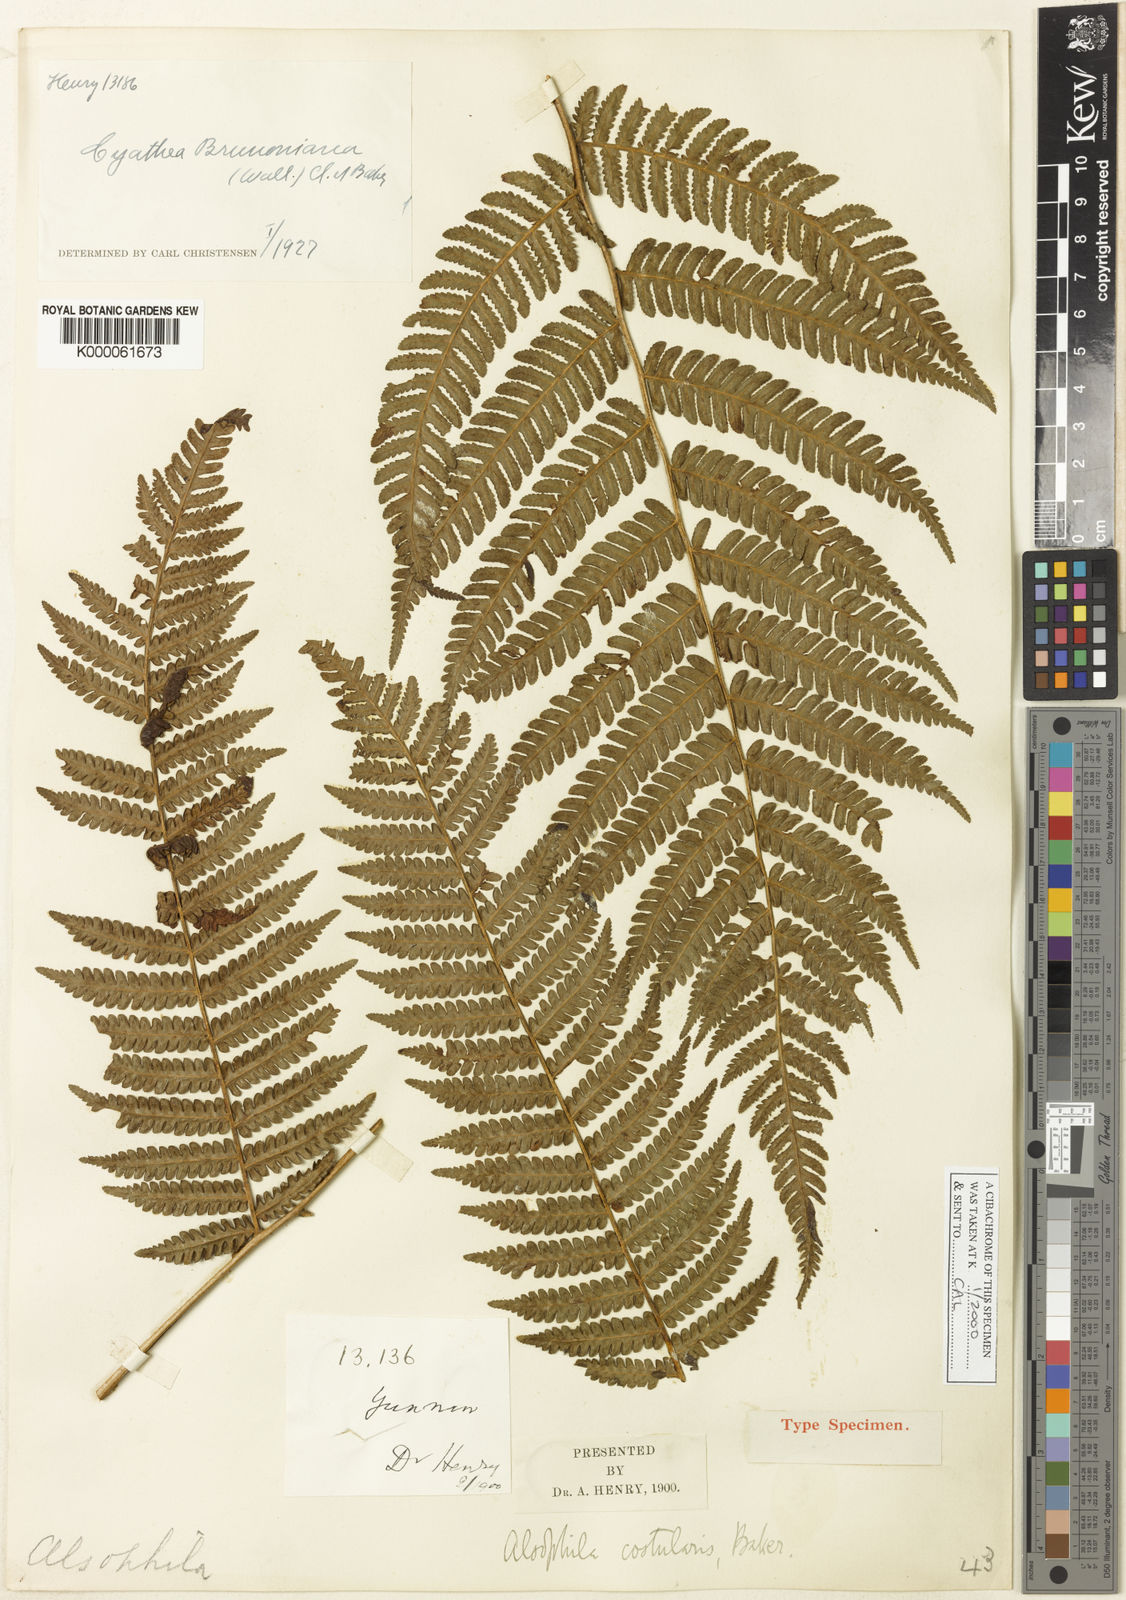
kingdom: Plantae
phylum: Tracheophyta
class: Polypodiopsida
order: Cyatheales
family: Cyatheaceae
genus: Sphaeropteris
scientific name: Sphaeropteris chinensis
